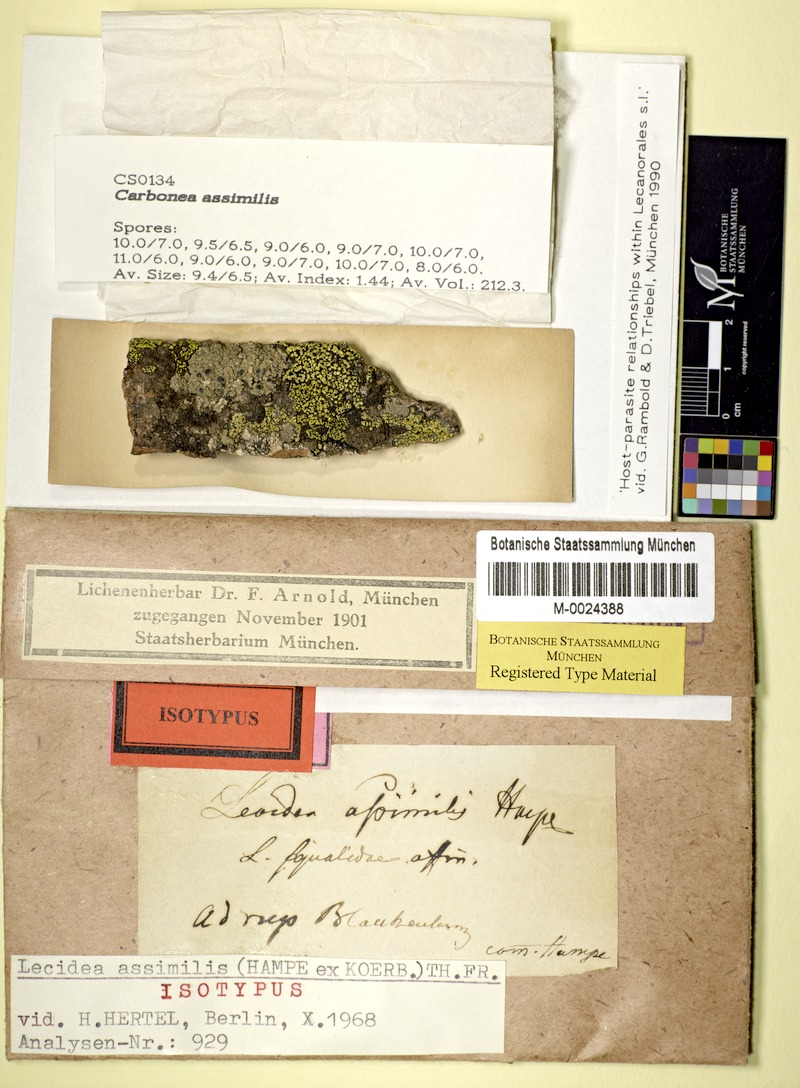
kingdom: Fungi
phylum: Ascomycota
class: Lecanoromycetes
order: Lecanorales
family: Lecanoraceae
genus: Carbonea
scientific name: Carbonea assimilis
